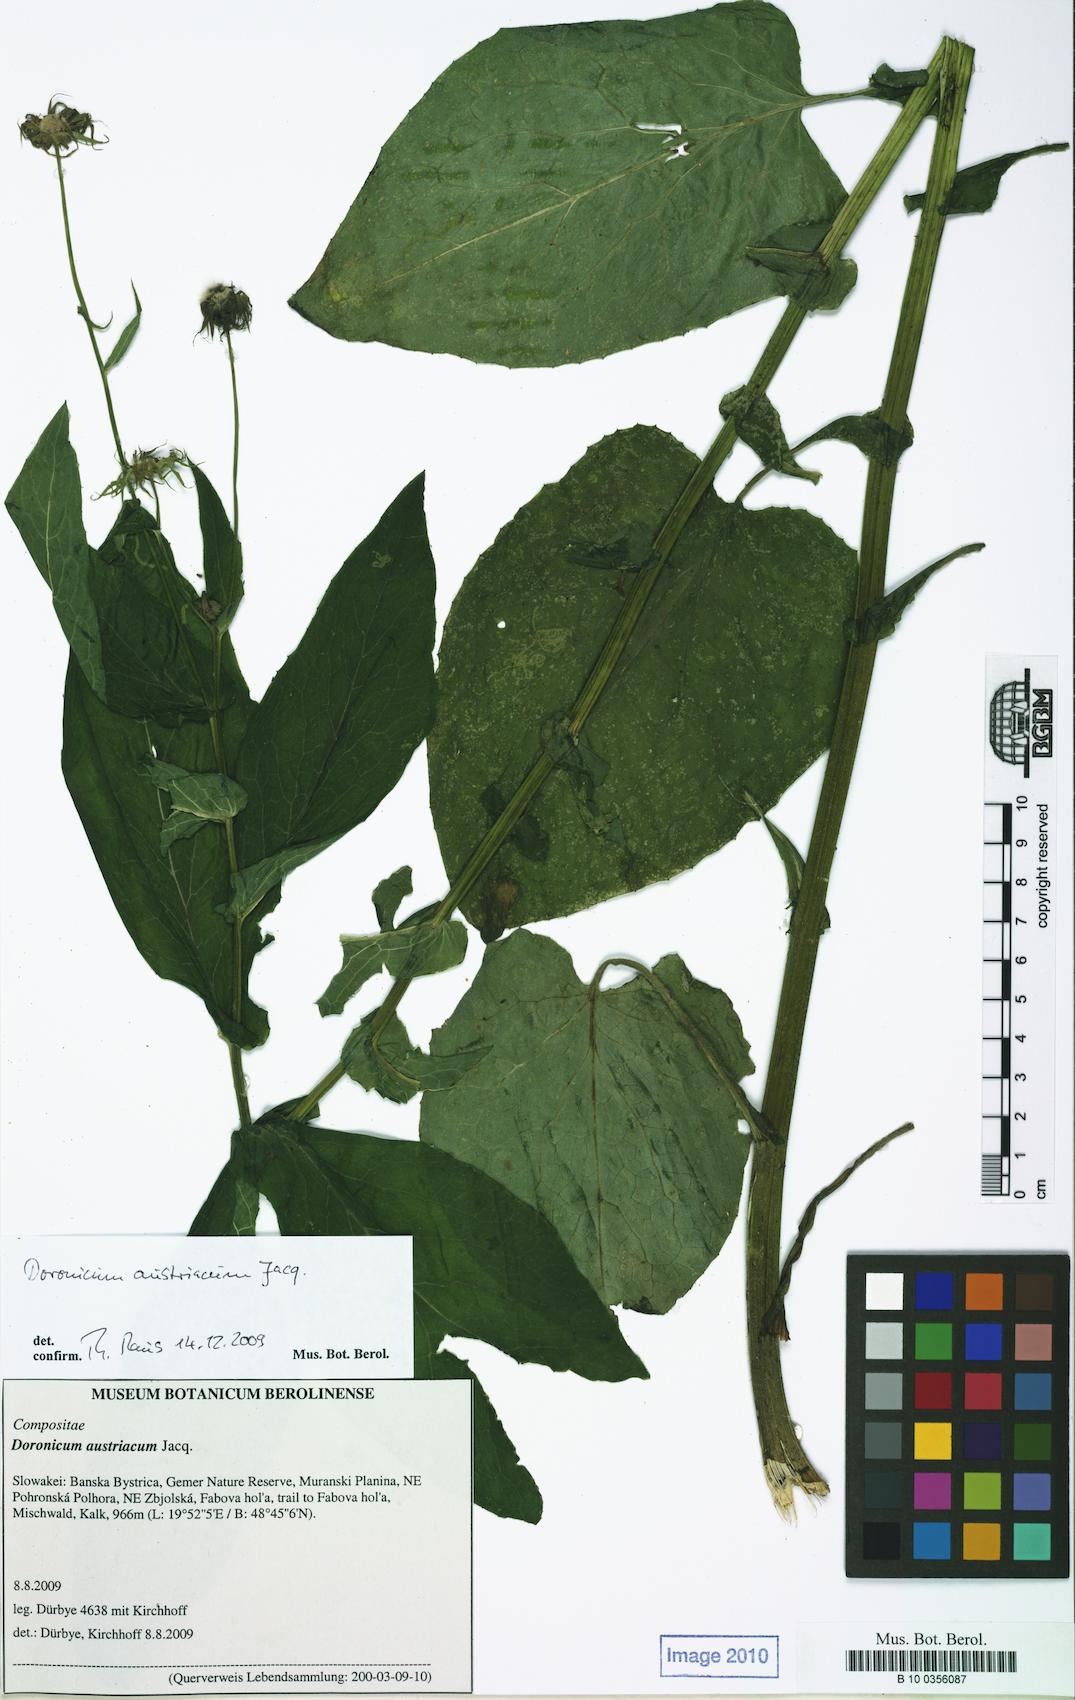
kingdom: Plantae
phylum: Tracheophyta
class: Magnoliopsida
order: Asterales
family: Asteraceae
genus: Doronicum
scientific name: Doronicum austriacum
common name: Austrian leopard's-bane
